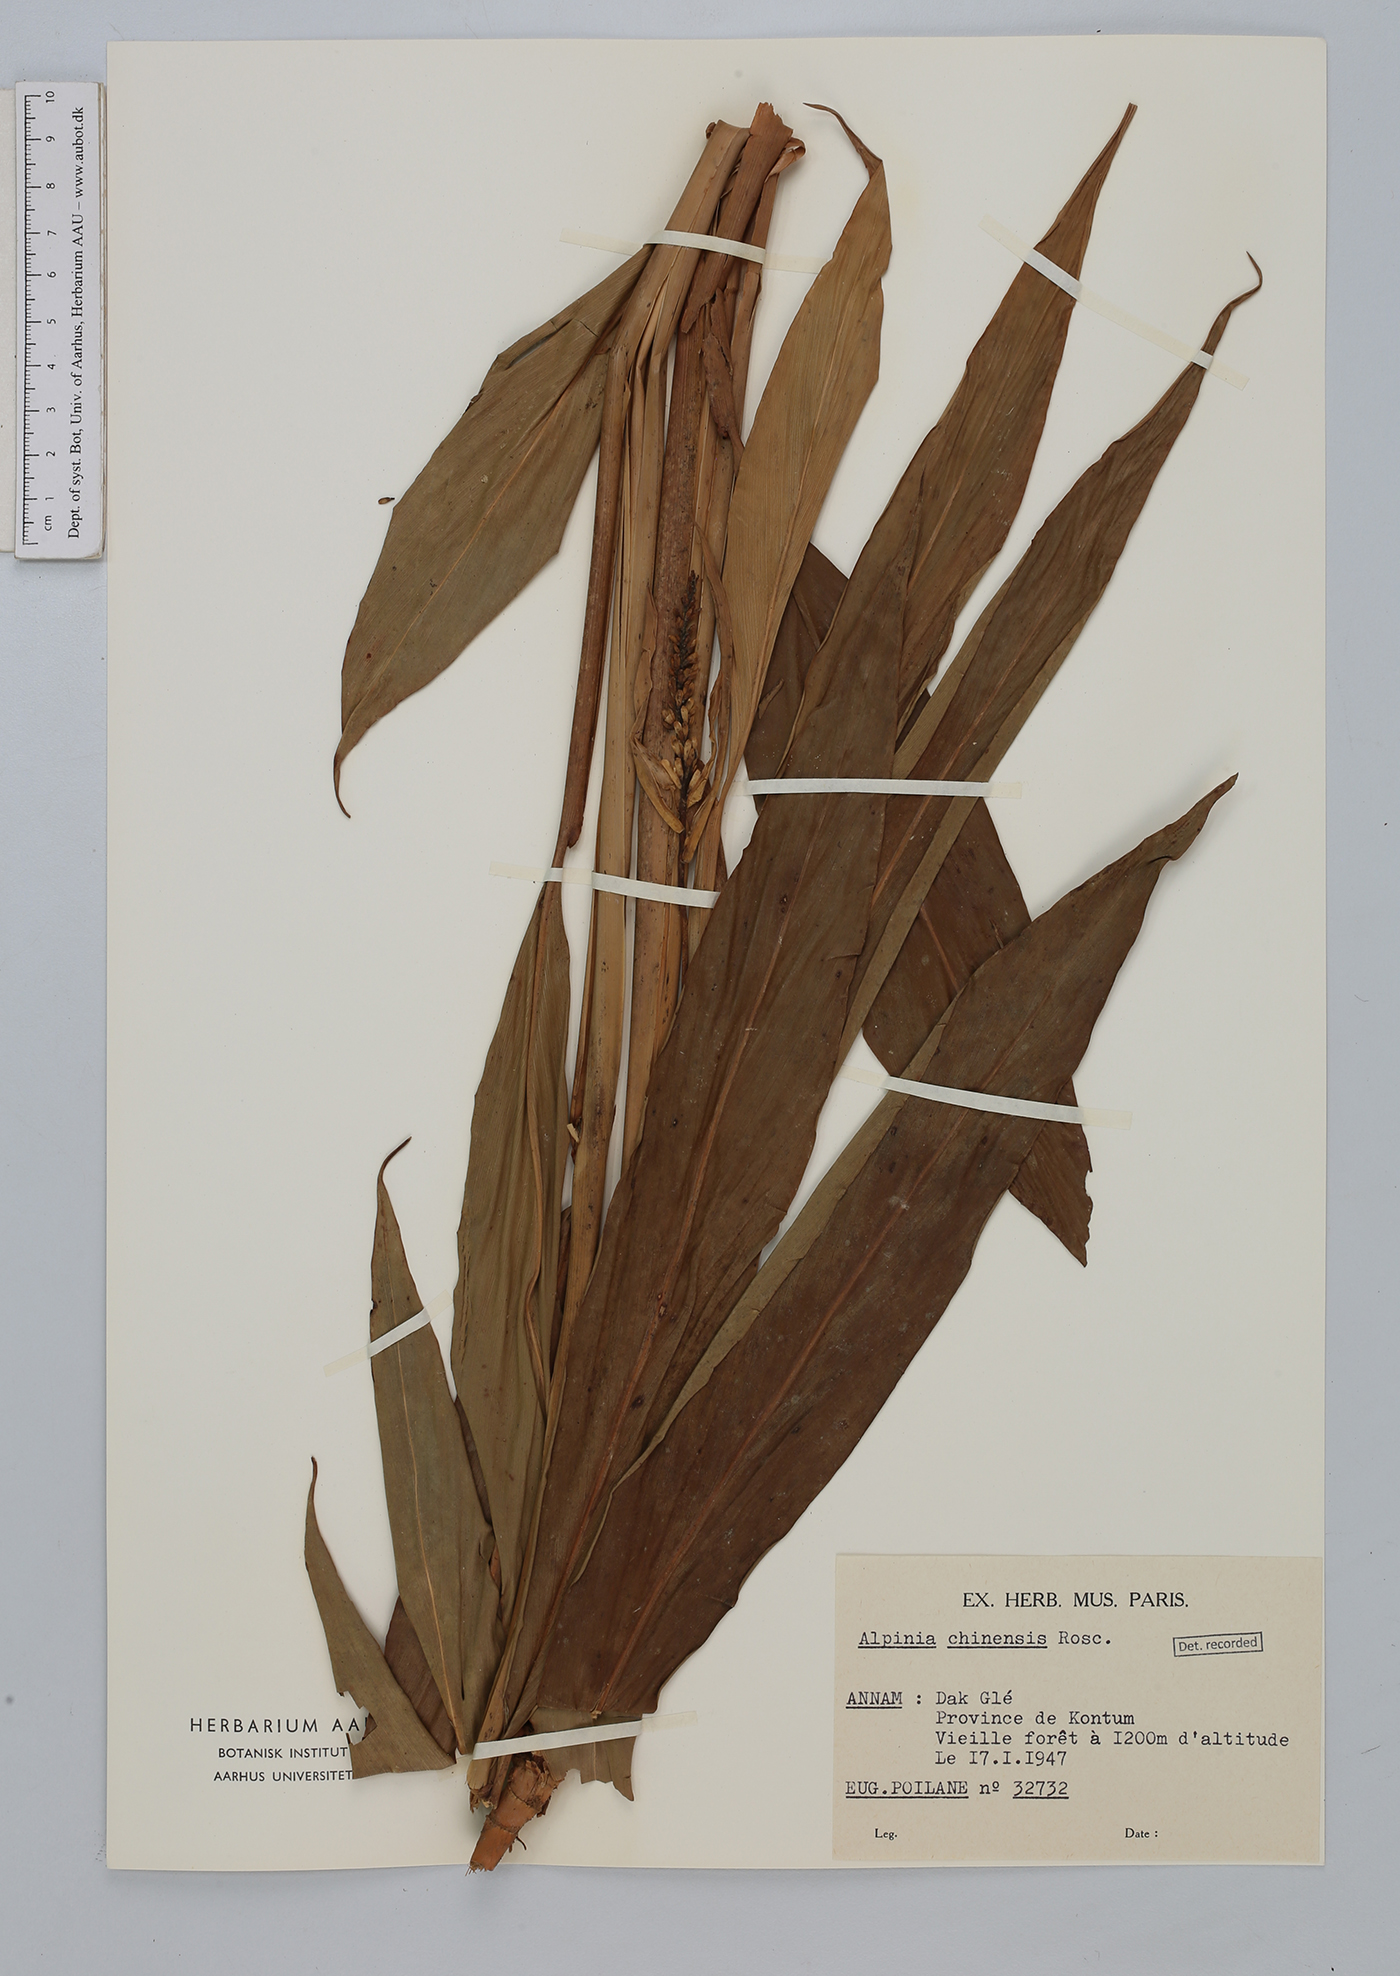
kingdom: Plantae
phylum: Tracheophyta
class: Liliopsida
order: Zingiberales
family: Zingiberaceae
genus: Alpinia
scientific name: Alpinia chinensis
